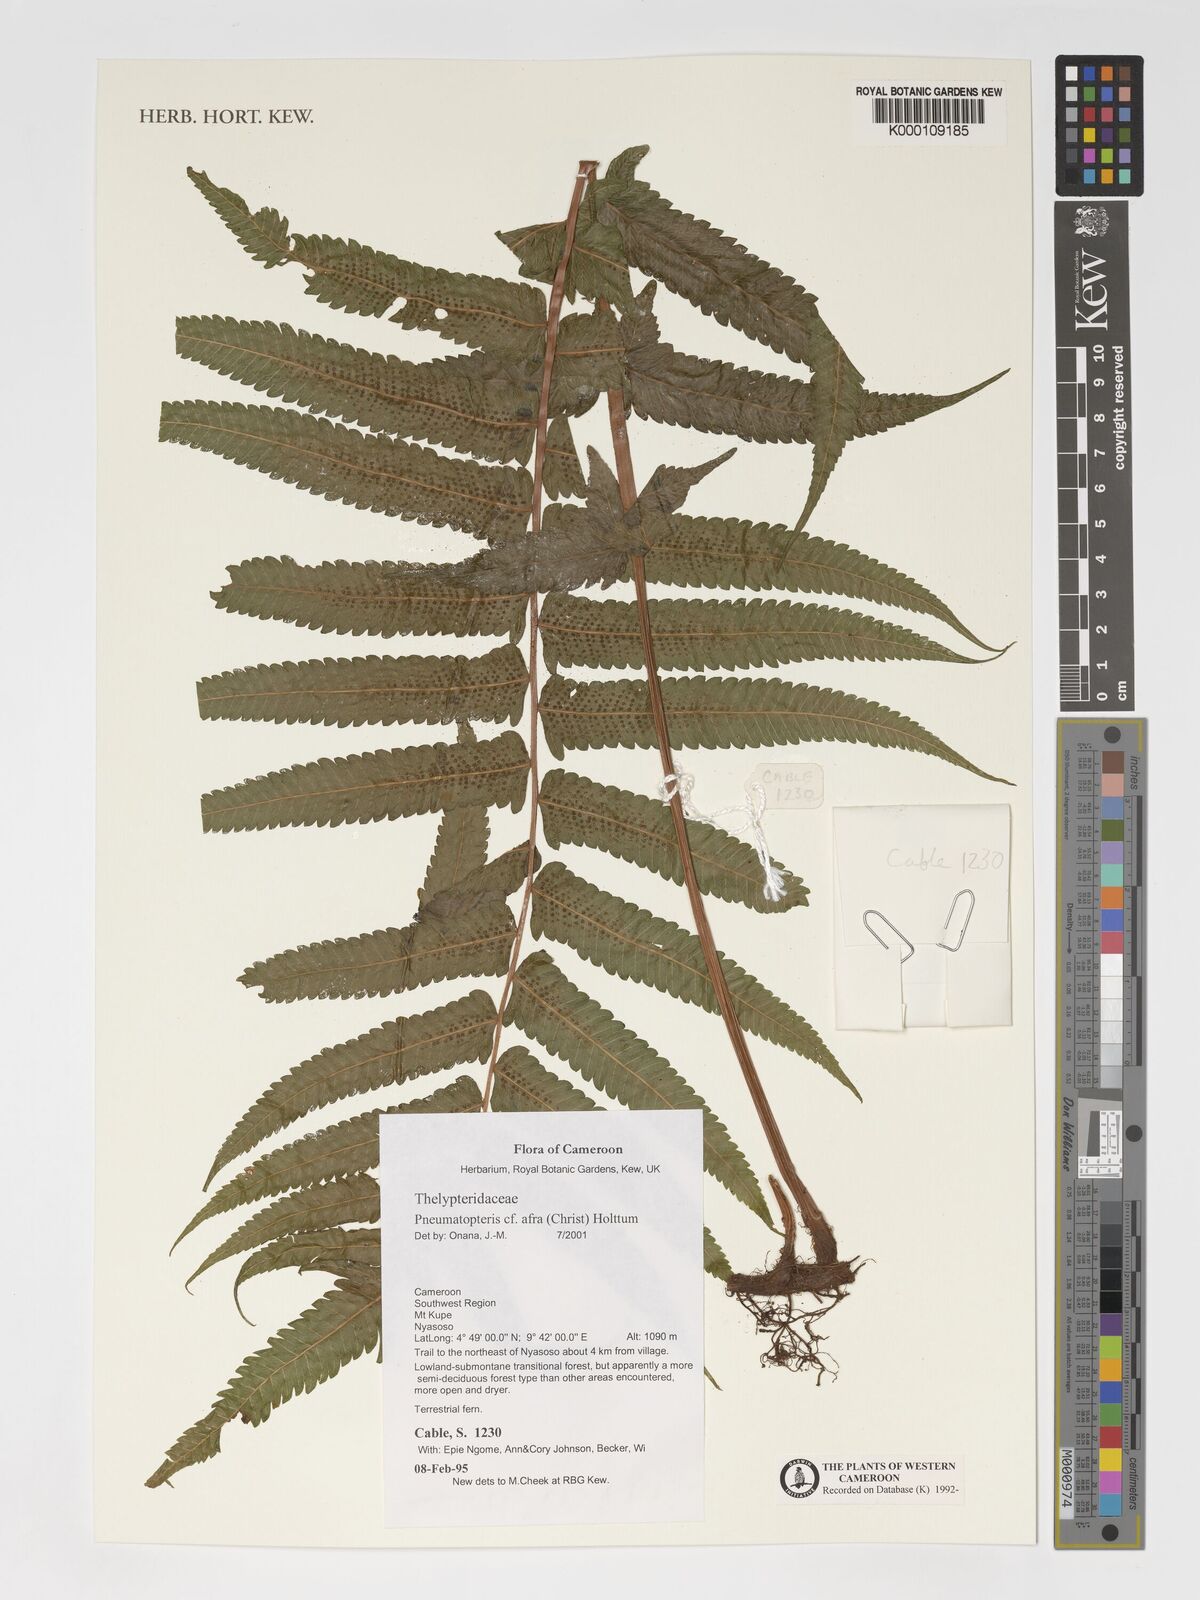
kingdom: Plantae
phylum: Tracheophyta
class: Polypodiopsida
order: Polypodiales
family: Thelypteridaceae
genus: Abacopteris
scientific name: Abacopteris afra
